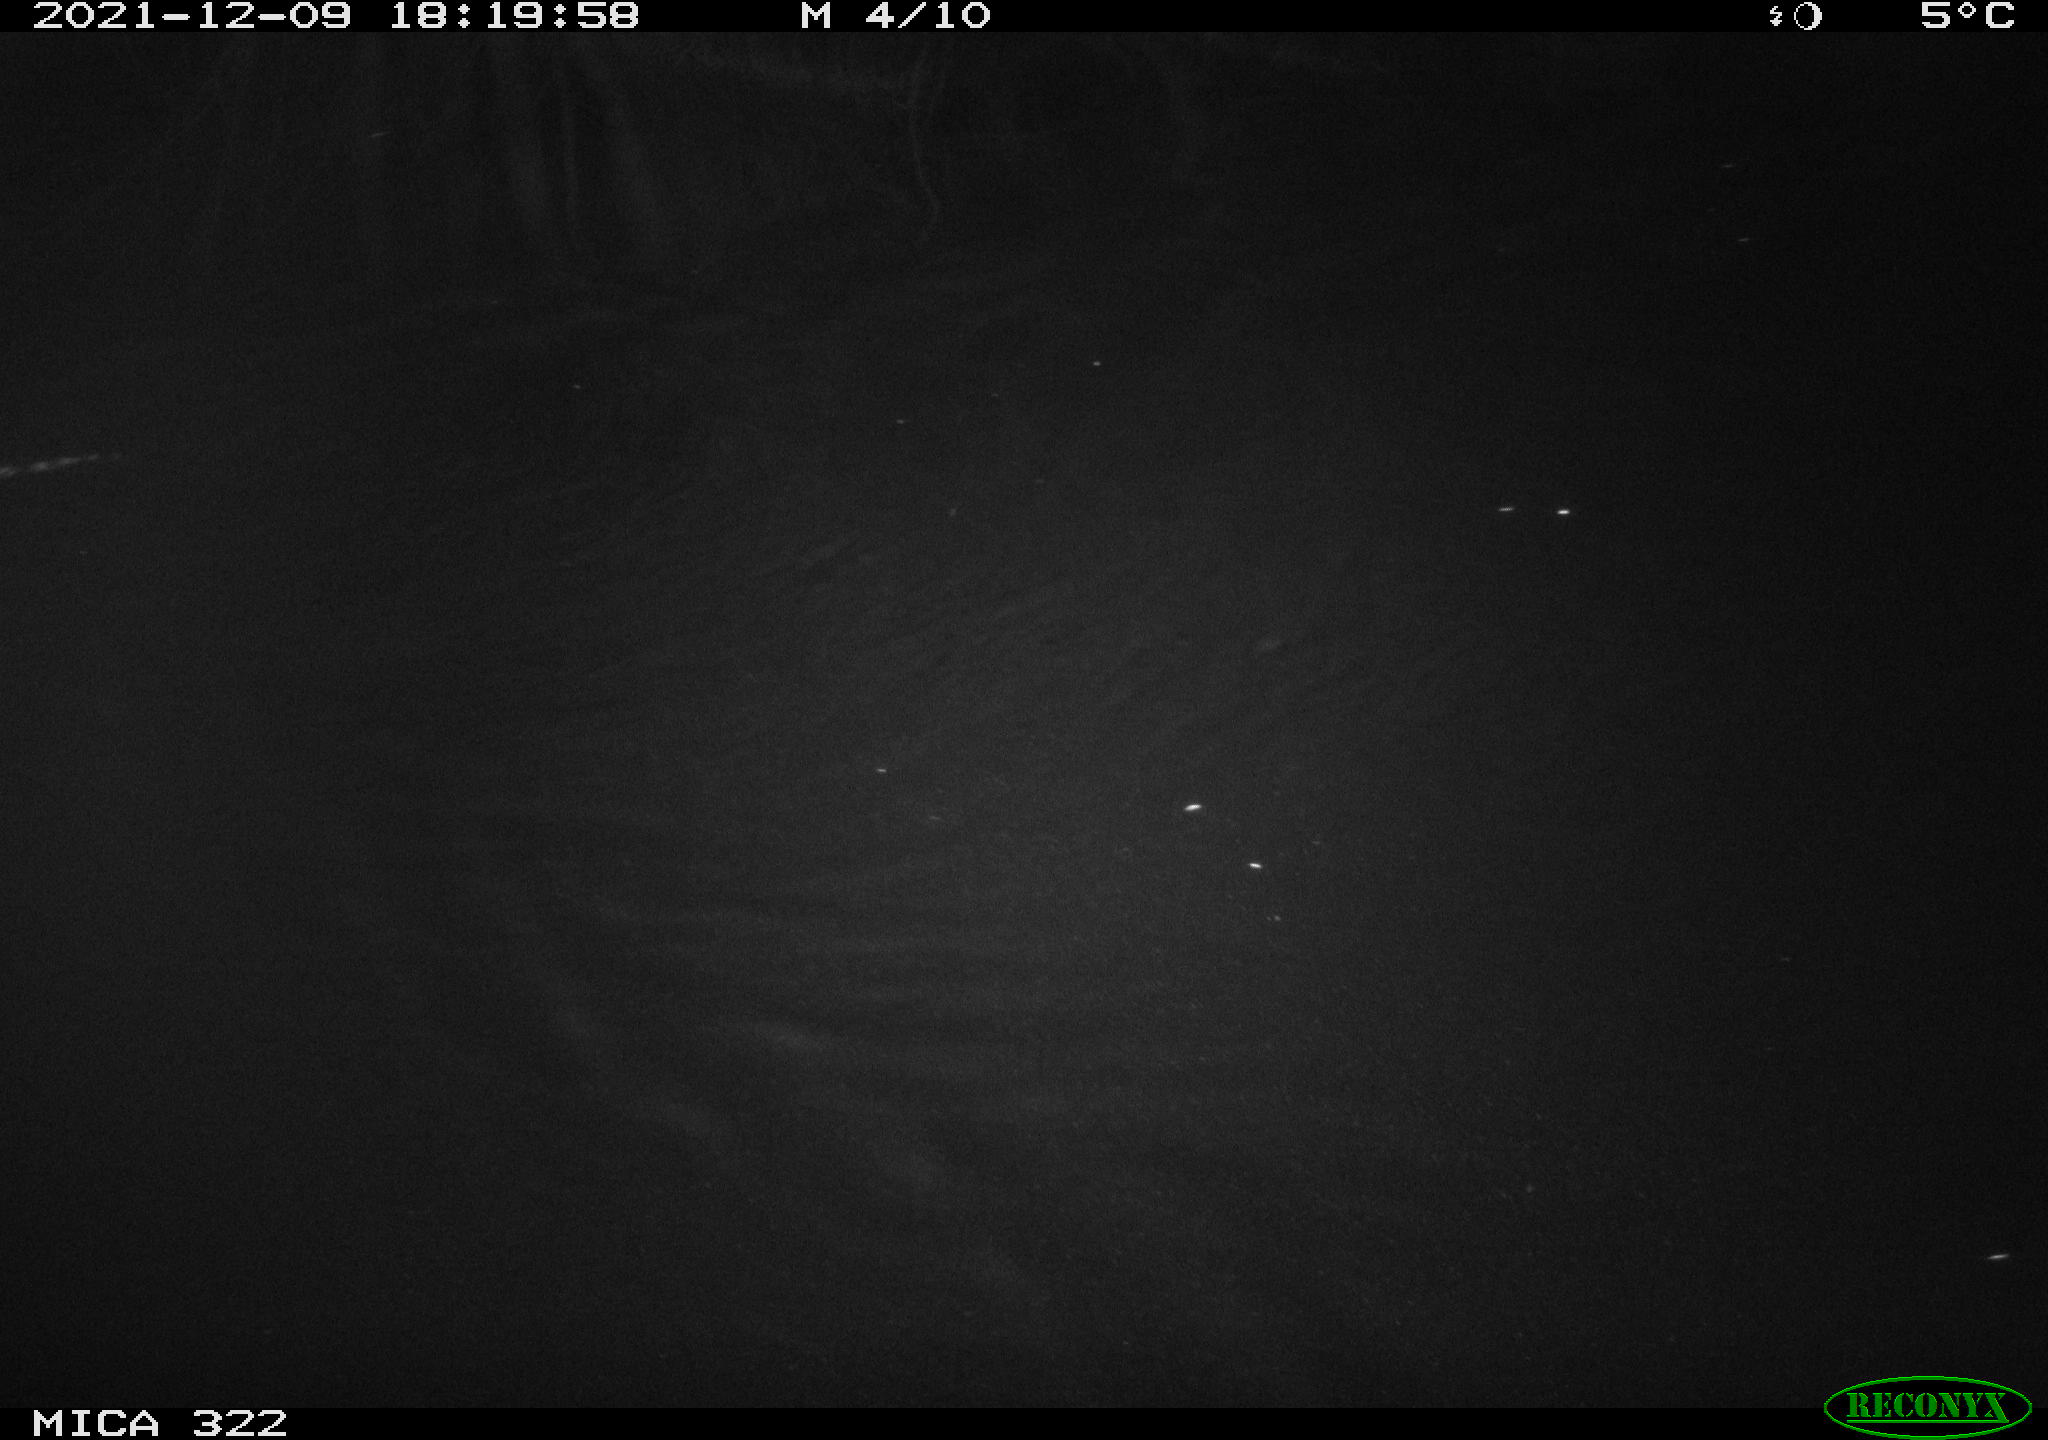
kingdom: Animalia
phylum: Chordata
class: Mammalia
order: Rodentia
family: Muridae
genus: Rattus
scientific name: Rattus norvegicus
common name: Brown rat
